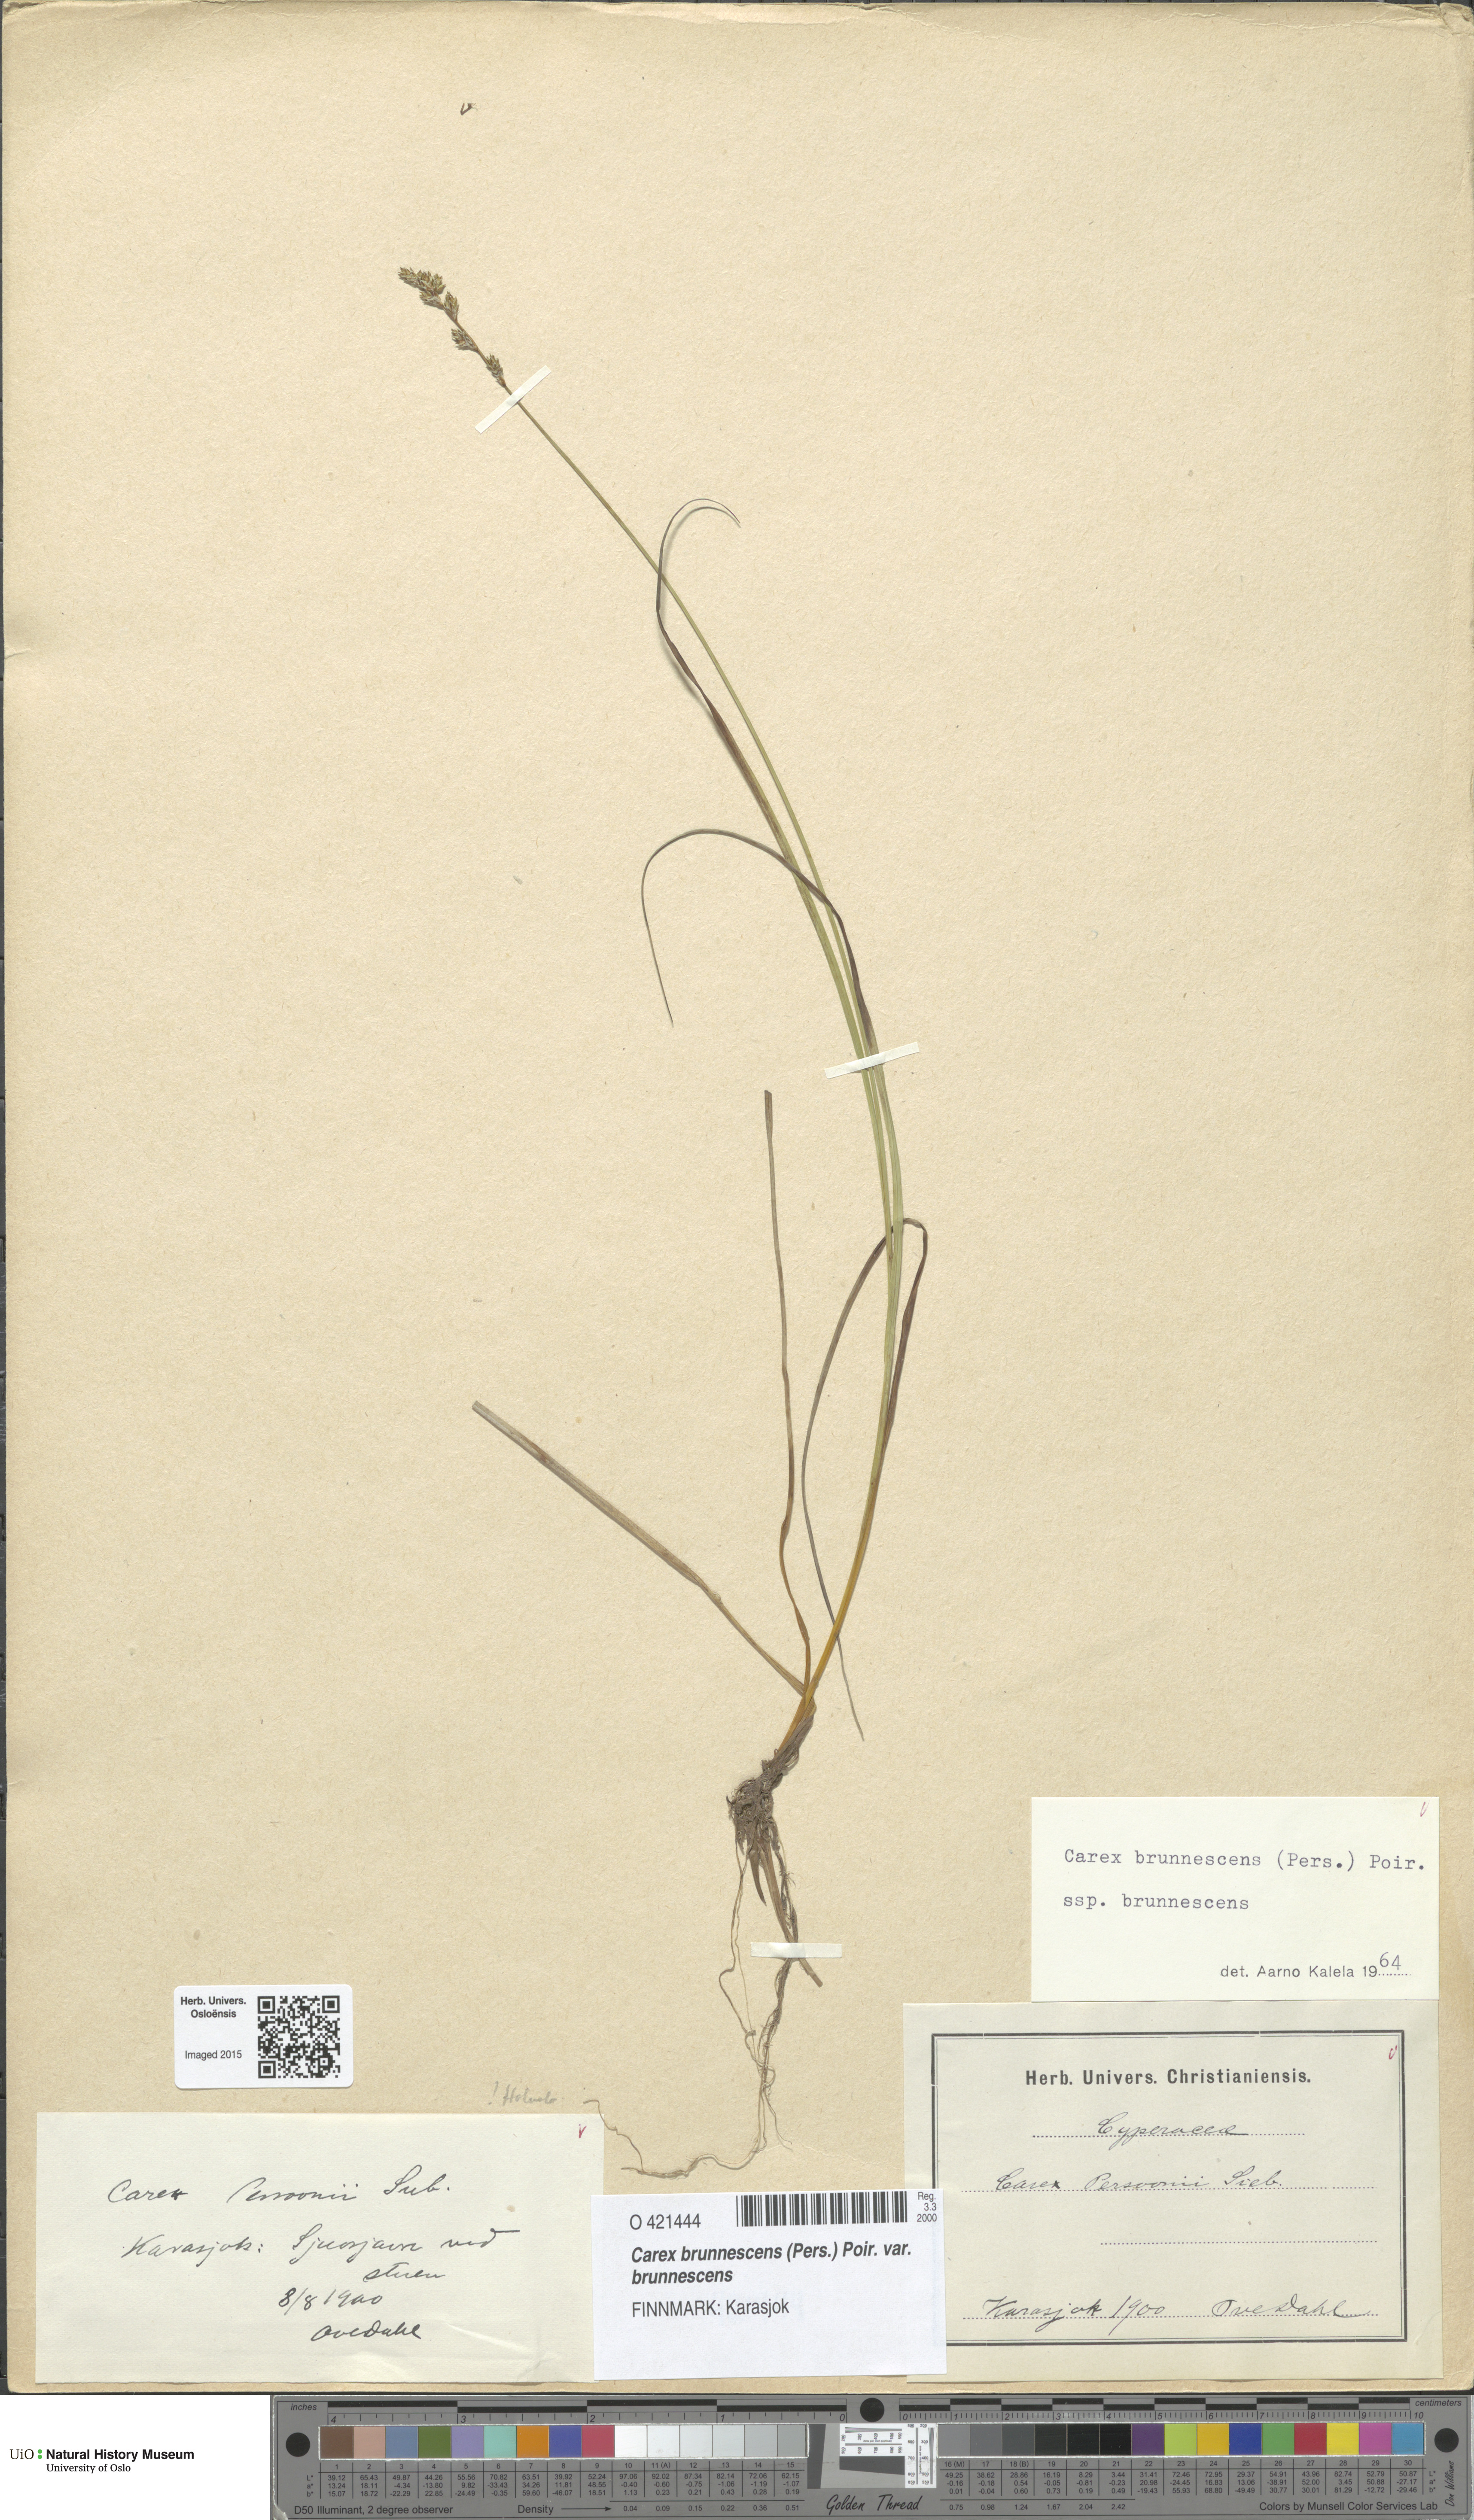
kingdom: Plantae
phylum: Tracheophyta
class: Liliopsida
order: Poales
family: Cyperaceae
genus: Carex
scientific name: Carex brunnescens
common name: Brown sedge
